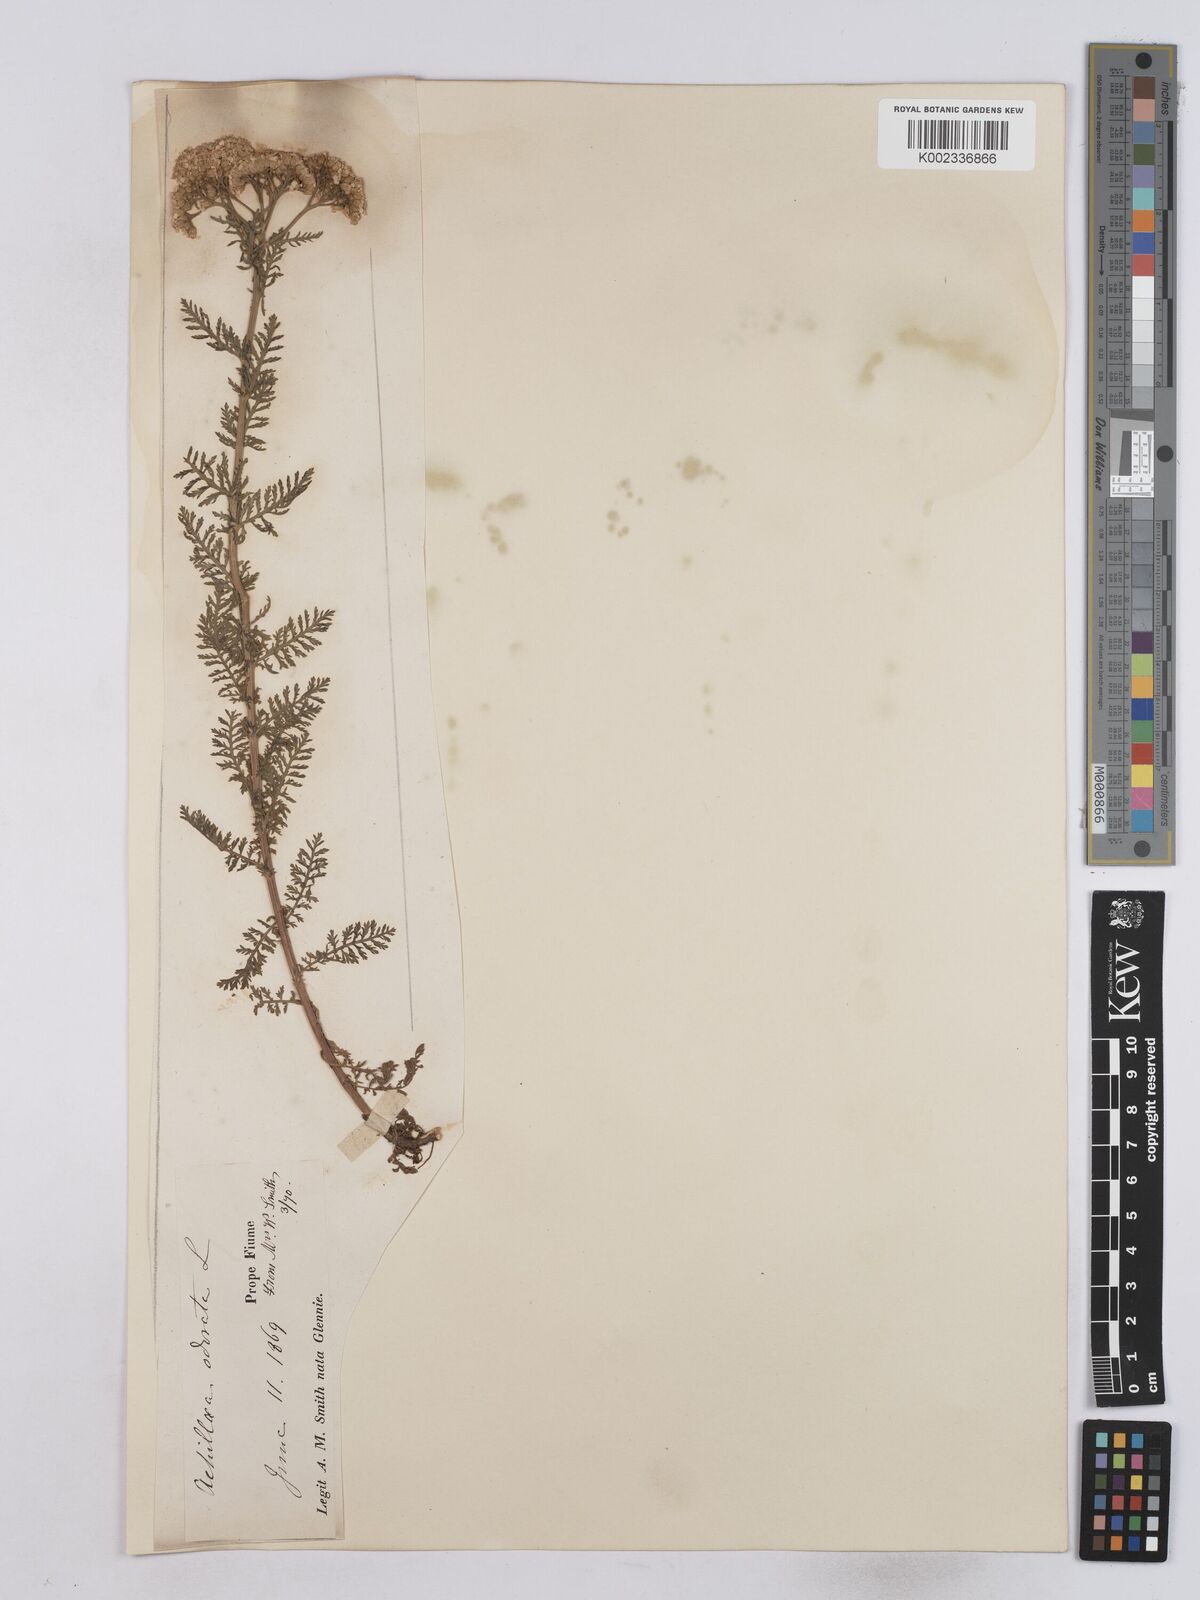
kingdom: Plantae
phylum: Tracheophyta
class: Magnoliopsida
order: Asterales
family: Asteraceae
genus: Achillea
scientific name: Achillea odorata
